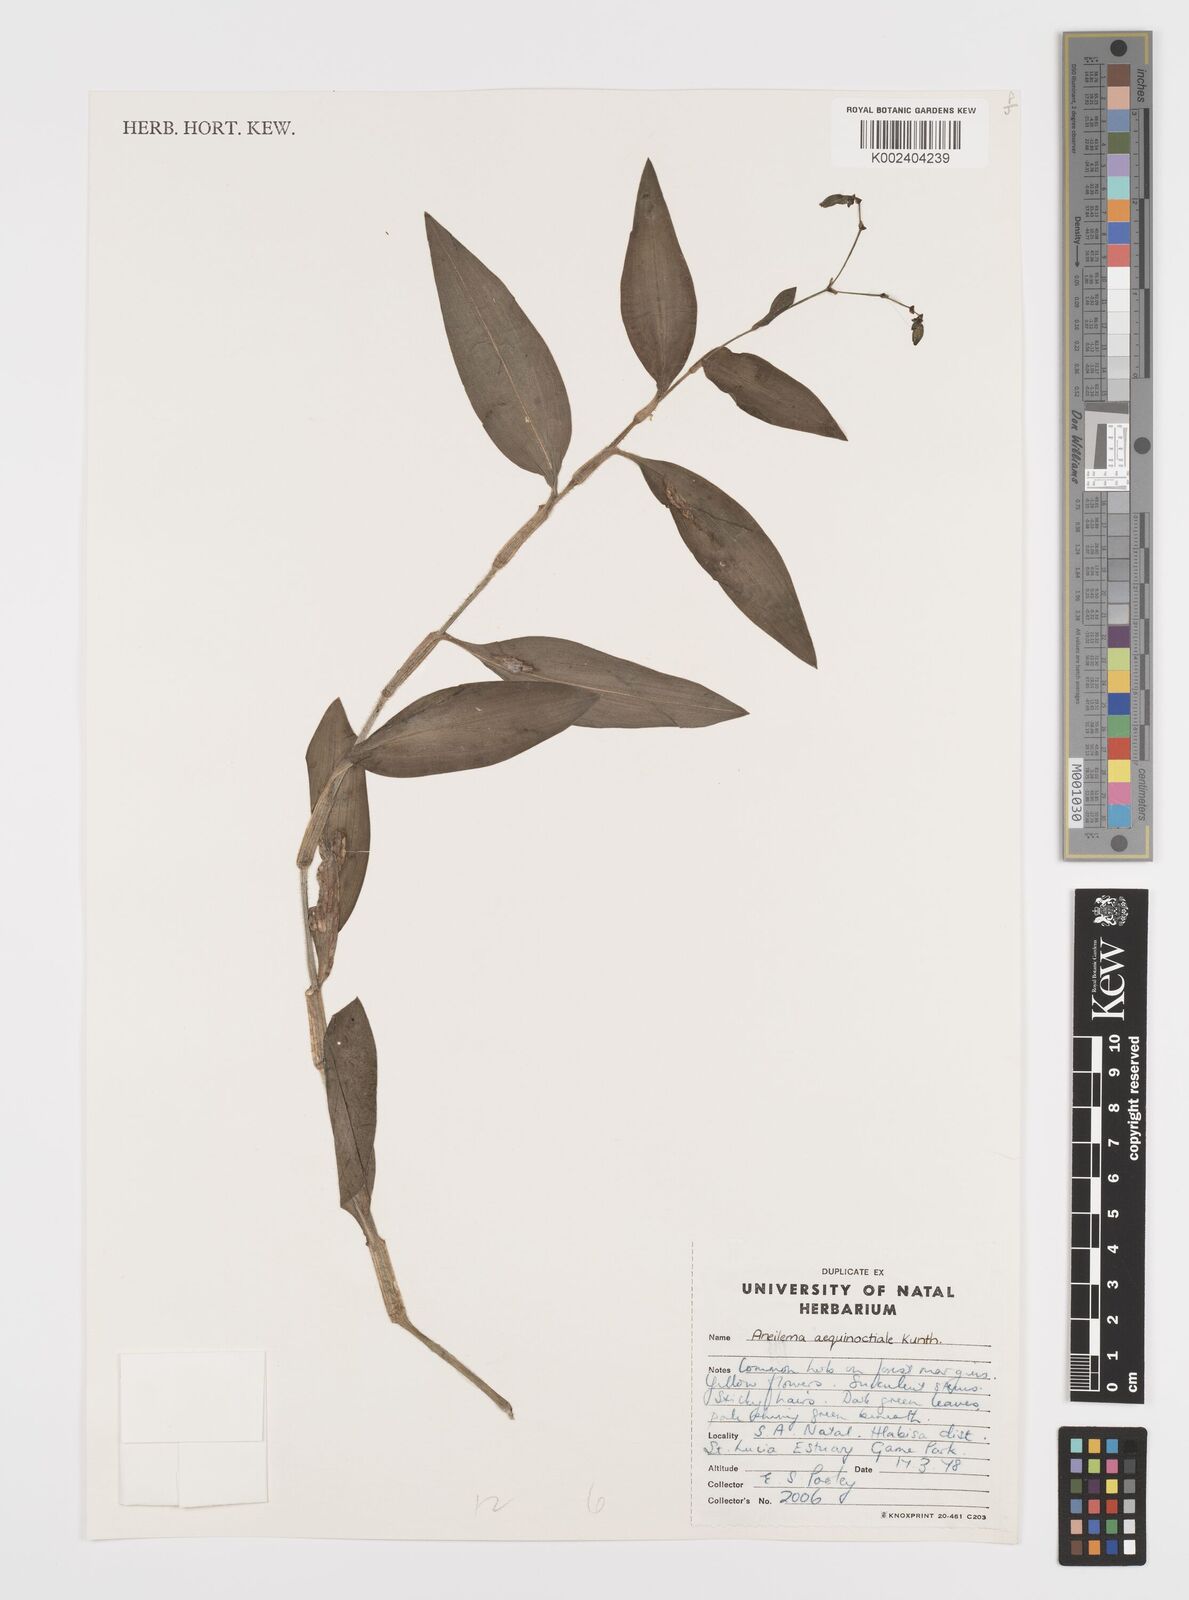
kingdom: Plantae
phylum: Tracheophyta
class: Liliopsida
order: Commelinales
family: Commelinaceae
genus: Aneilema
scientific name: Aneilema aequinoctiale
